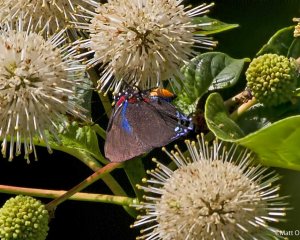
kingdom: Animalia
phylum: Arthropoda
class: Insecta
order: Lepidoptera
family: Lycaenidae
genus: Atlides
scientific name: Atlides halesus
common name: Great Purple Hairstreak
